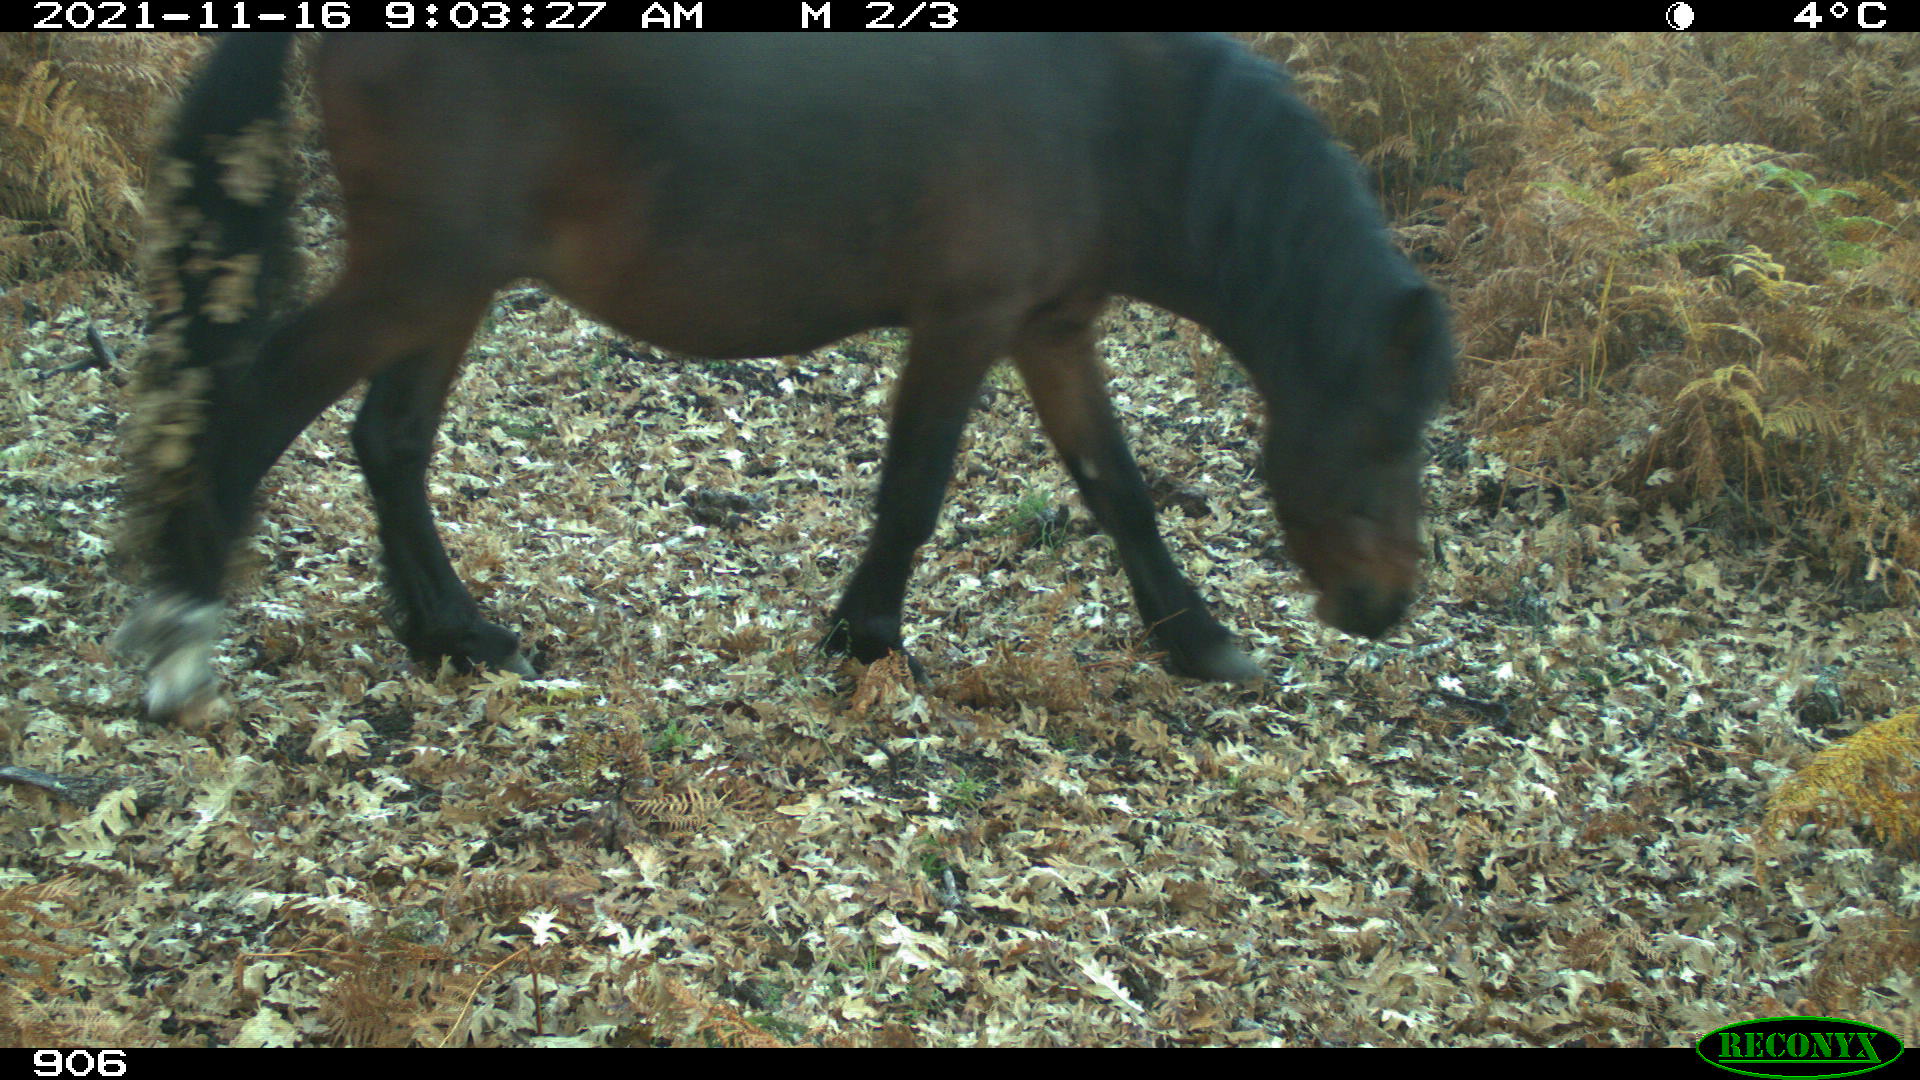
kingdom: Animalia
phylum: Chordata
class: Mammalia
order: Perissodactyla
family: Equidae
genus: Equus
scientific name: Equus caballus
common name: Horse
